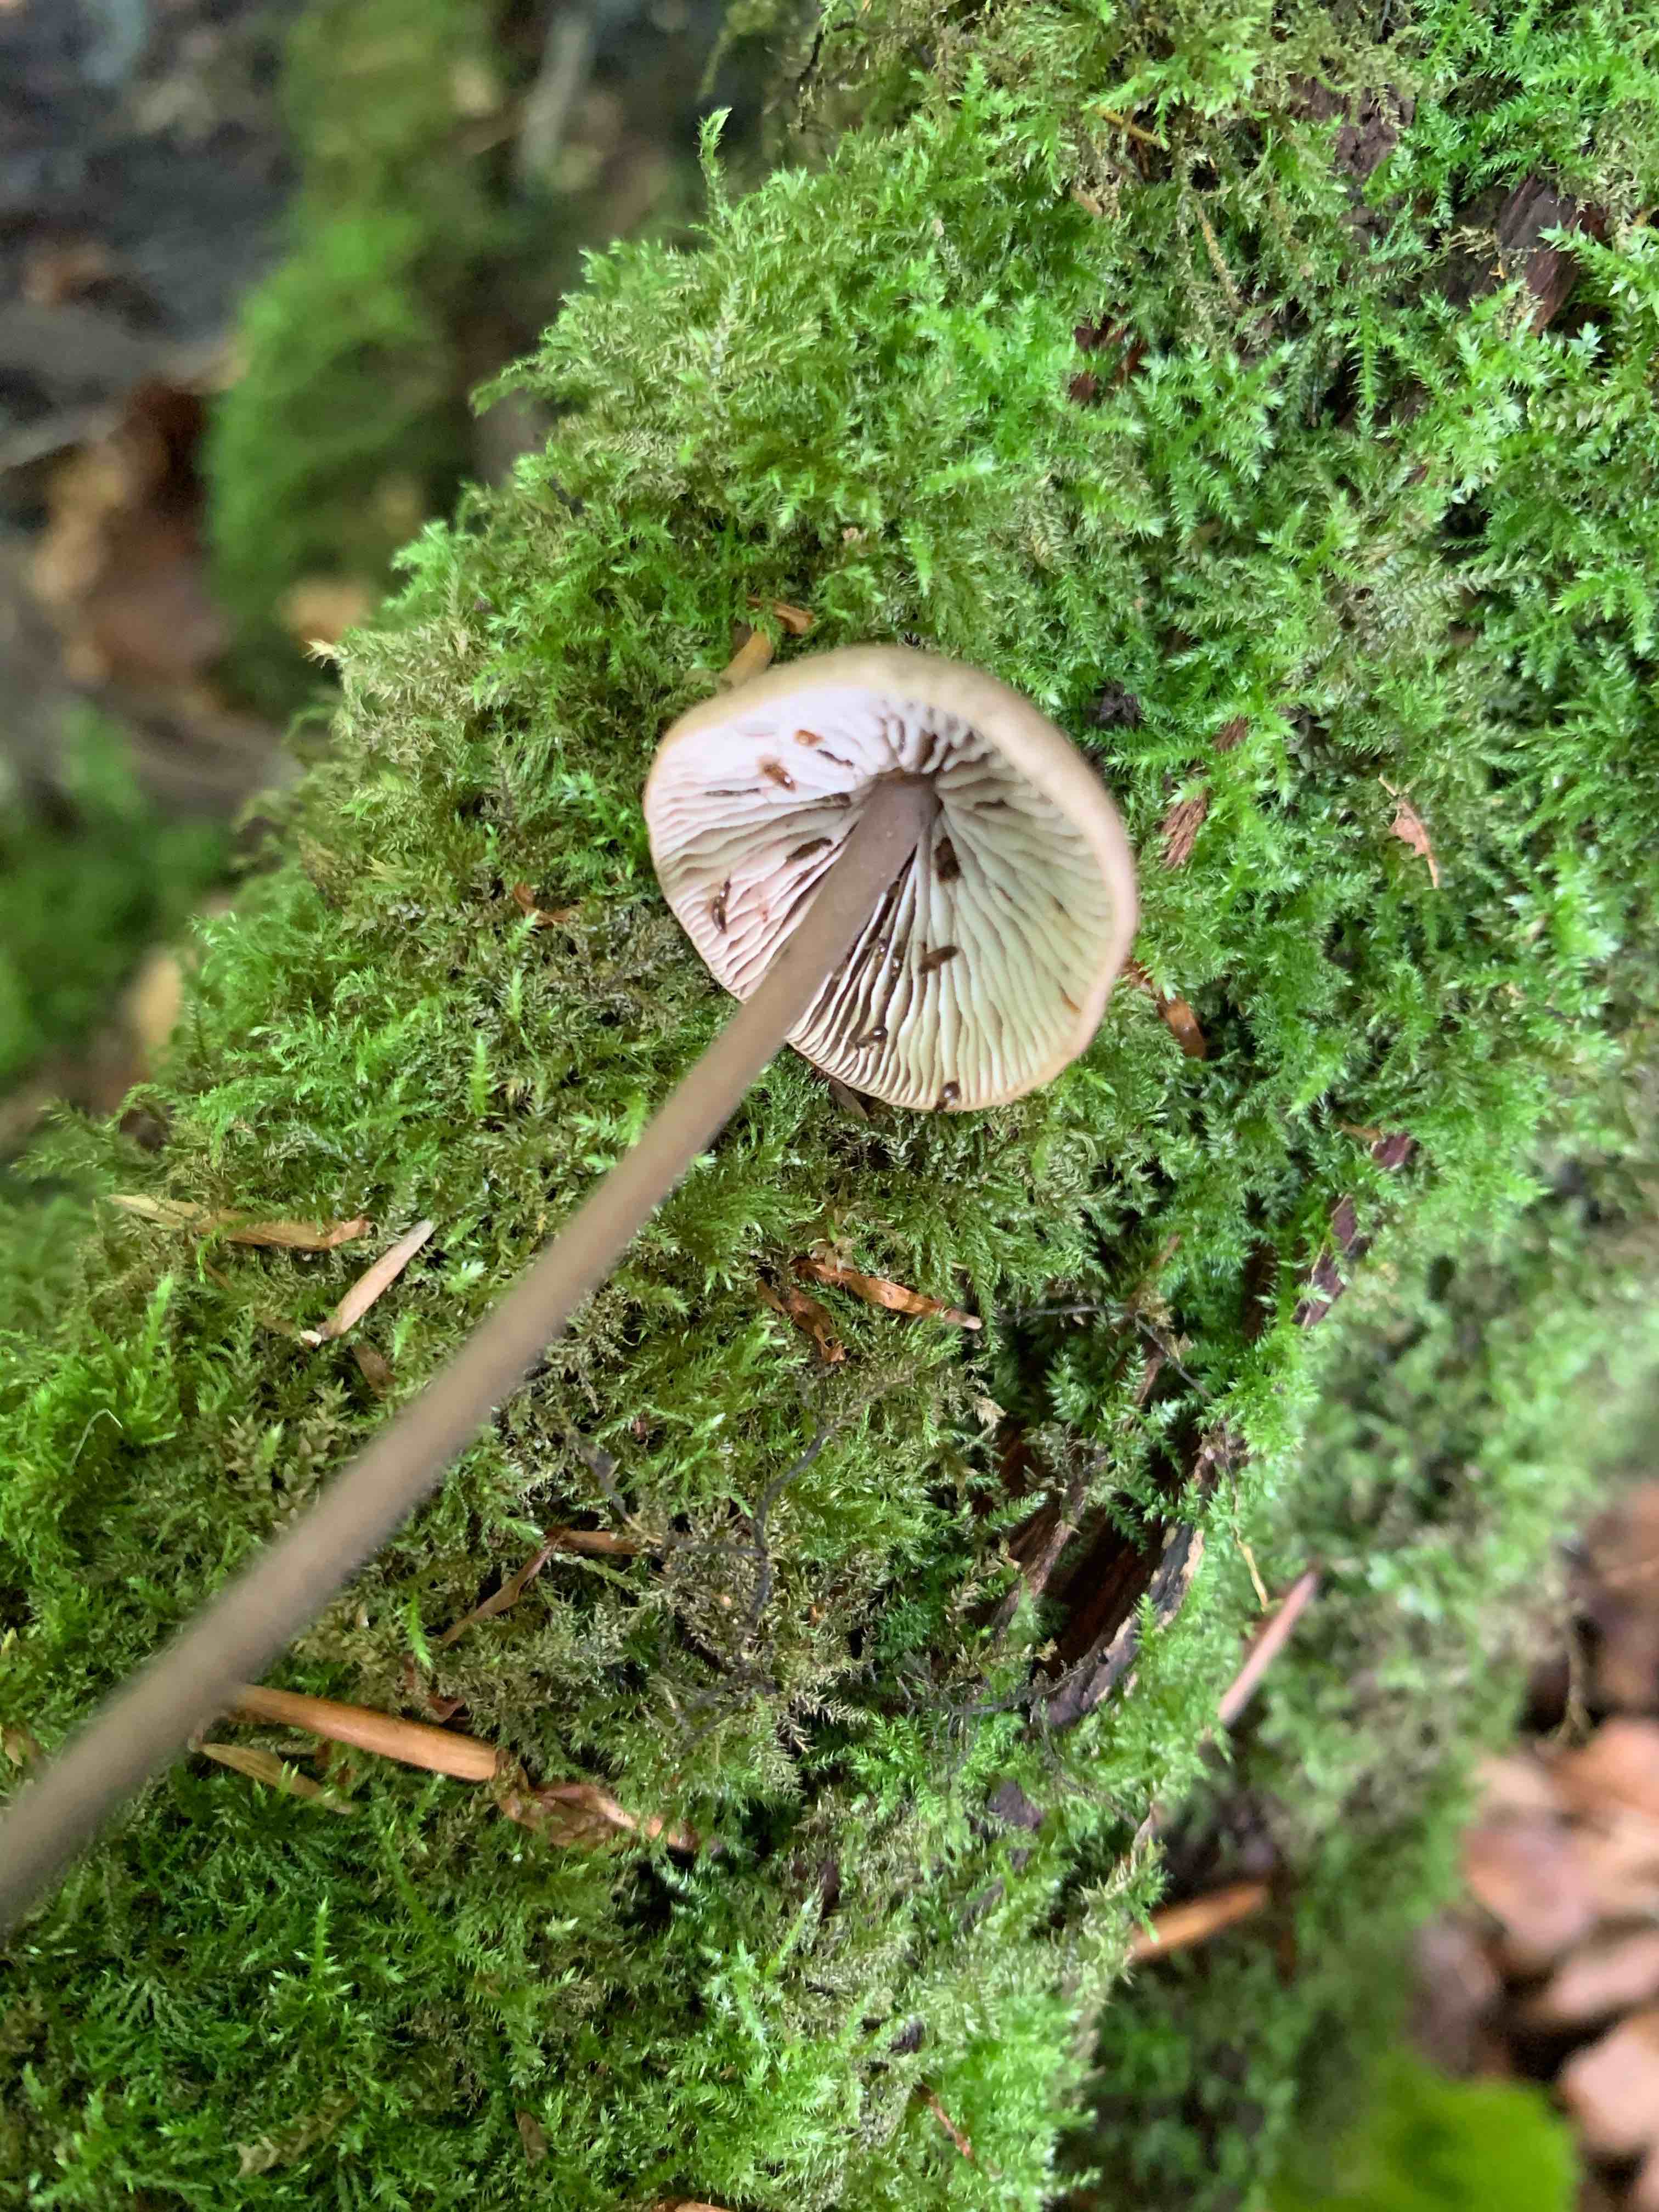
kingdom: Fungi
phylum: Basidiomycota
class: Agaricomycetes
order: Agaricales
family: Omphalotaceae
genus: Mycetinis
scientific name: Mycetinis alliaceus
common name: stor løghat
